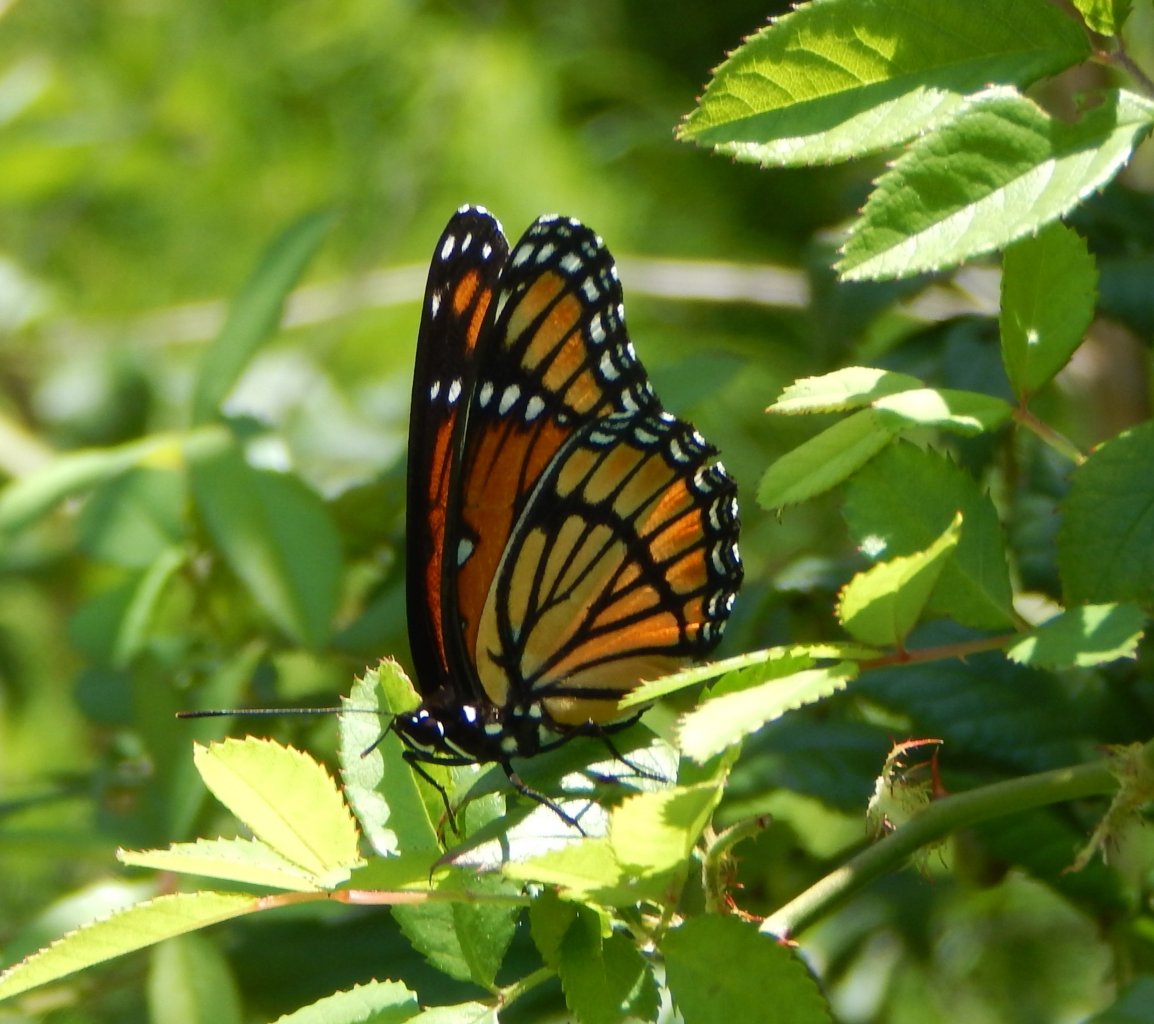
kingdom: Animalia
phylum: Arthropoda
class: Insecta
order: Lepidoptera
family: Nymphalidae
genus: Limenitis
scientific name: Limenitis archippus
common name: Viceroy
